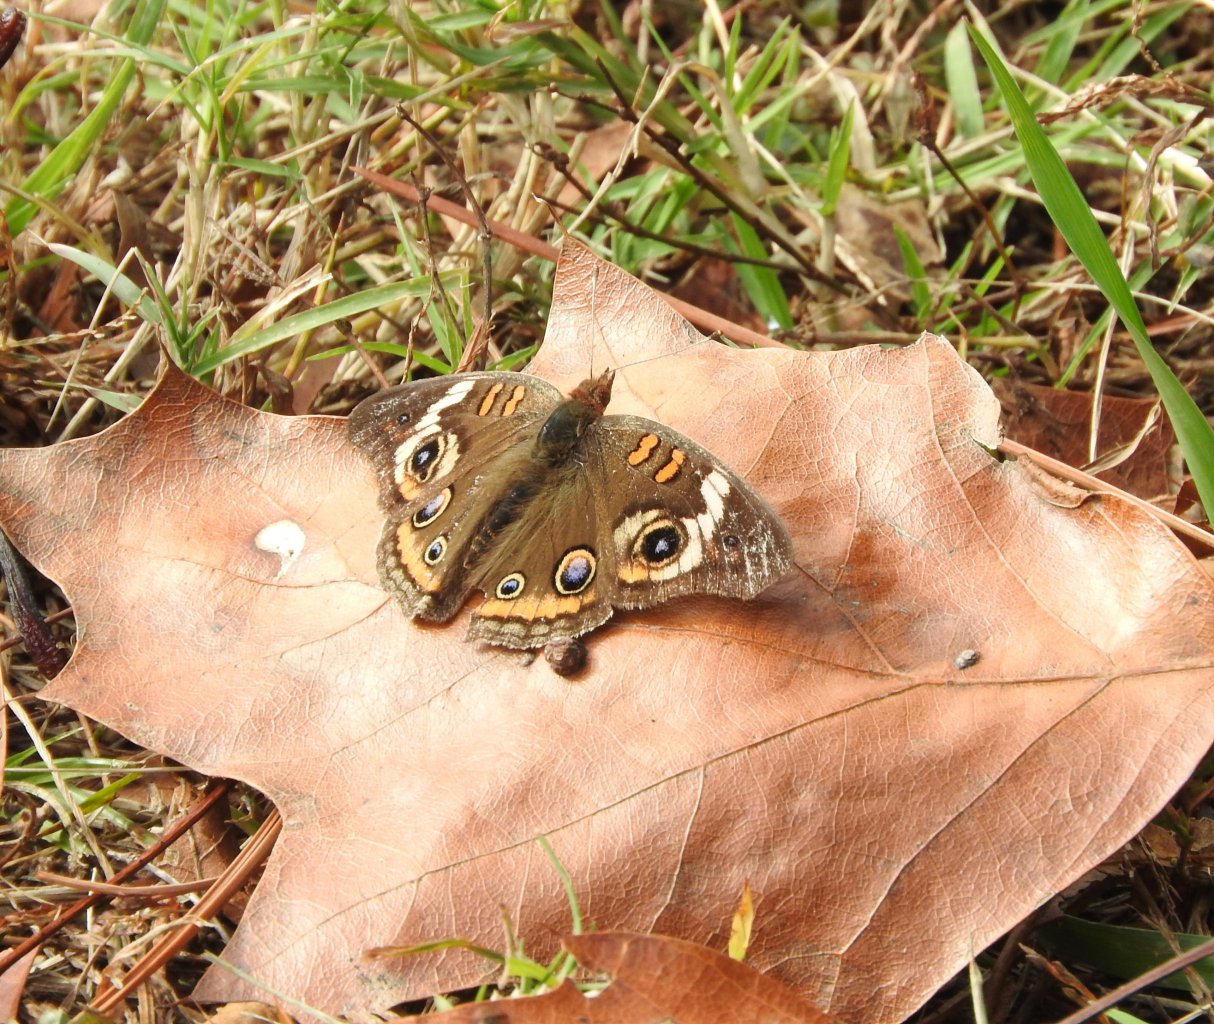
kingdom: Animalia
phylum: Arthropoda
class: Insecta
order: Lepidoptera
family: Nymphalidae
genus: Junonia
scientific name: Junonia coenia
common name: Common Buckeye
